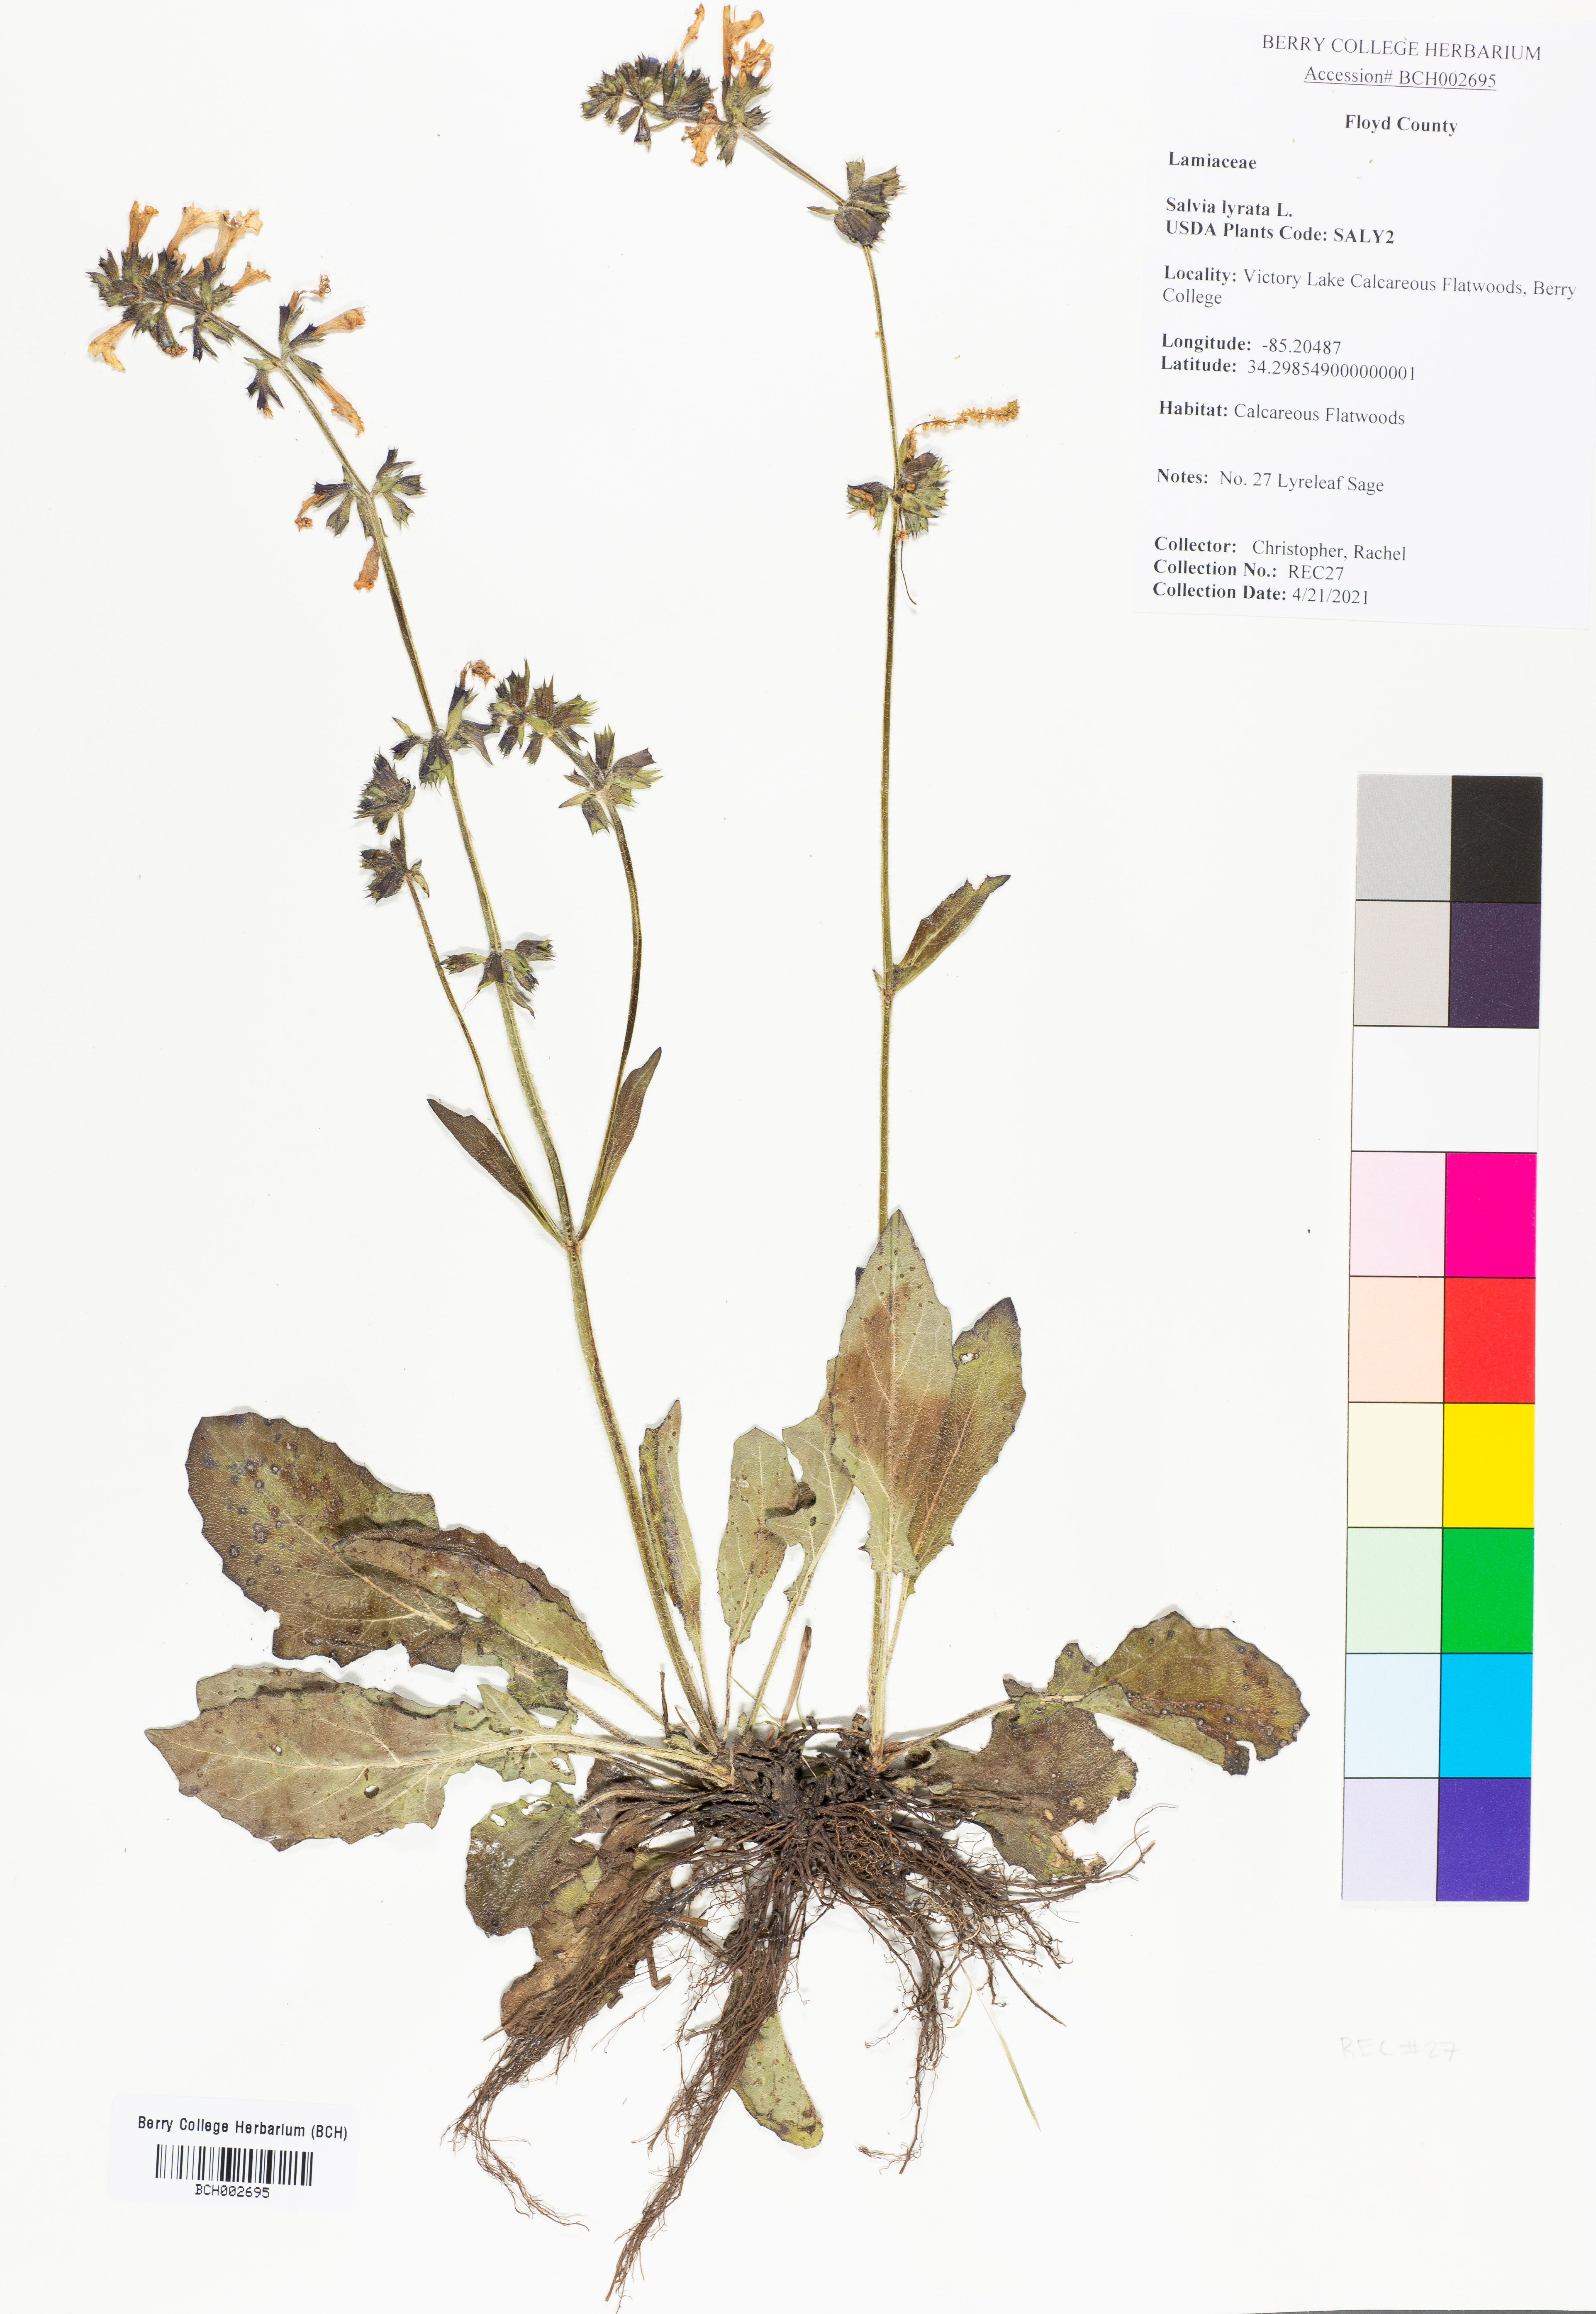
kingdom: Plantae
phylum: Tracheophyta
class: Magnoliopsida
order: Lamiales
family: Lamiaceae
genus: Salvia
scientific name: Salvia lyrata
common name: Cancerweed
